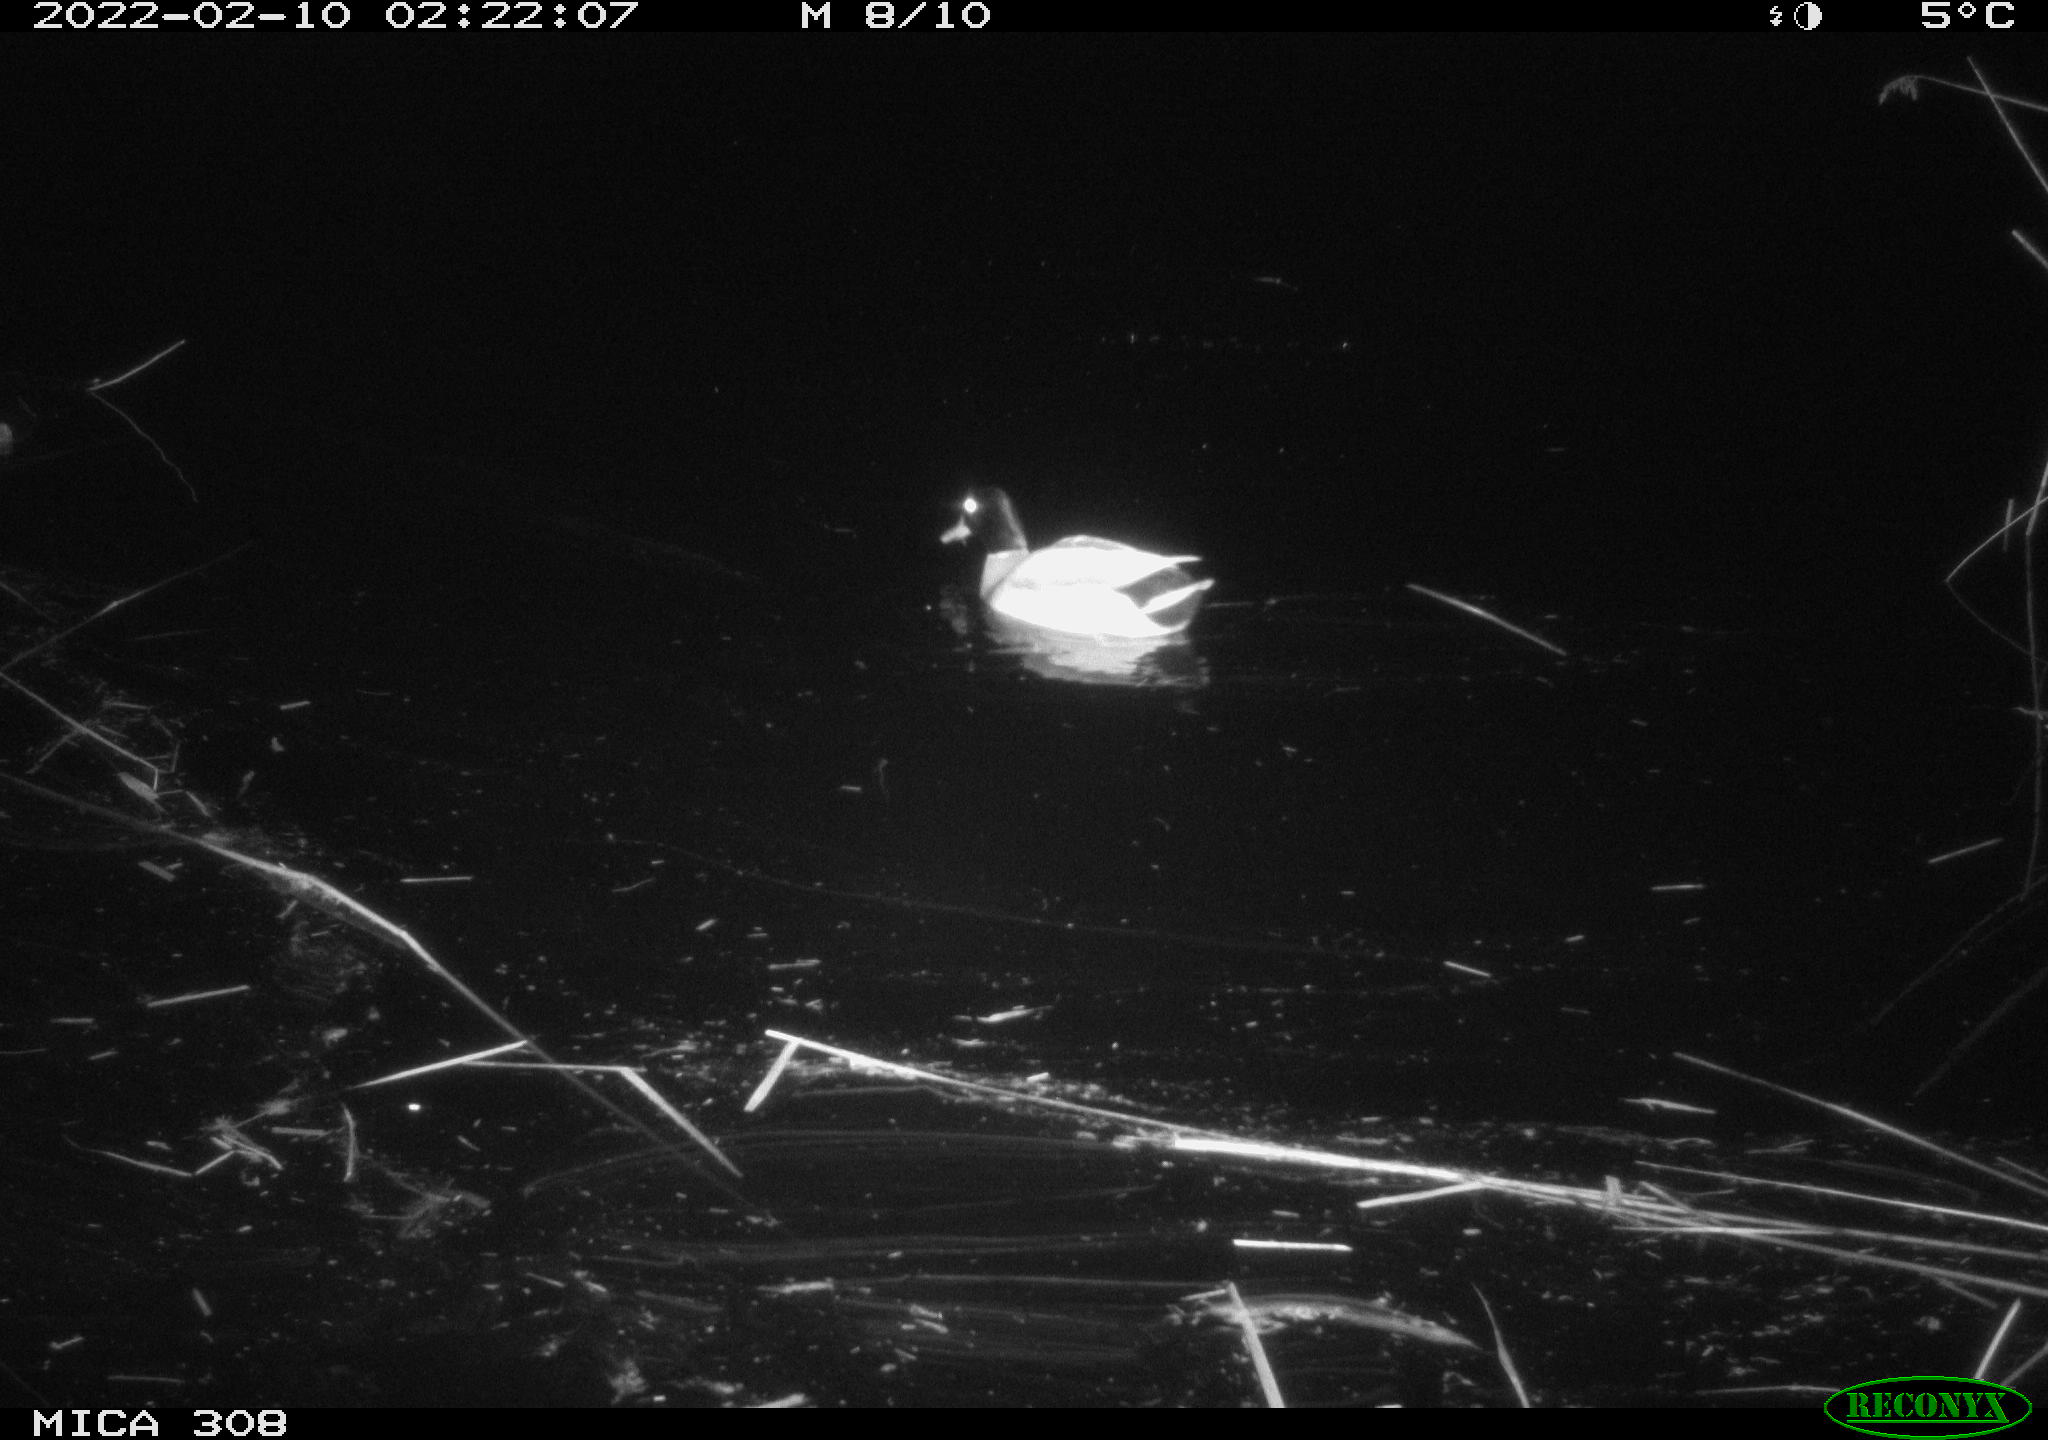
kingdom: Animalia
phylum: Chordata
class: Aves
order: Gruiformes
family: Rallidae
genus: Gallinula
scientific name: Gallinula chloropus
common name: Common moorhen
